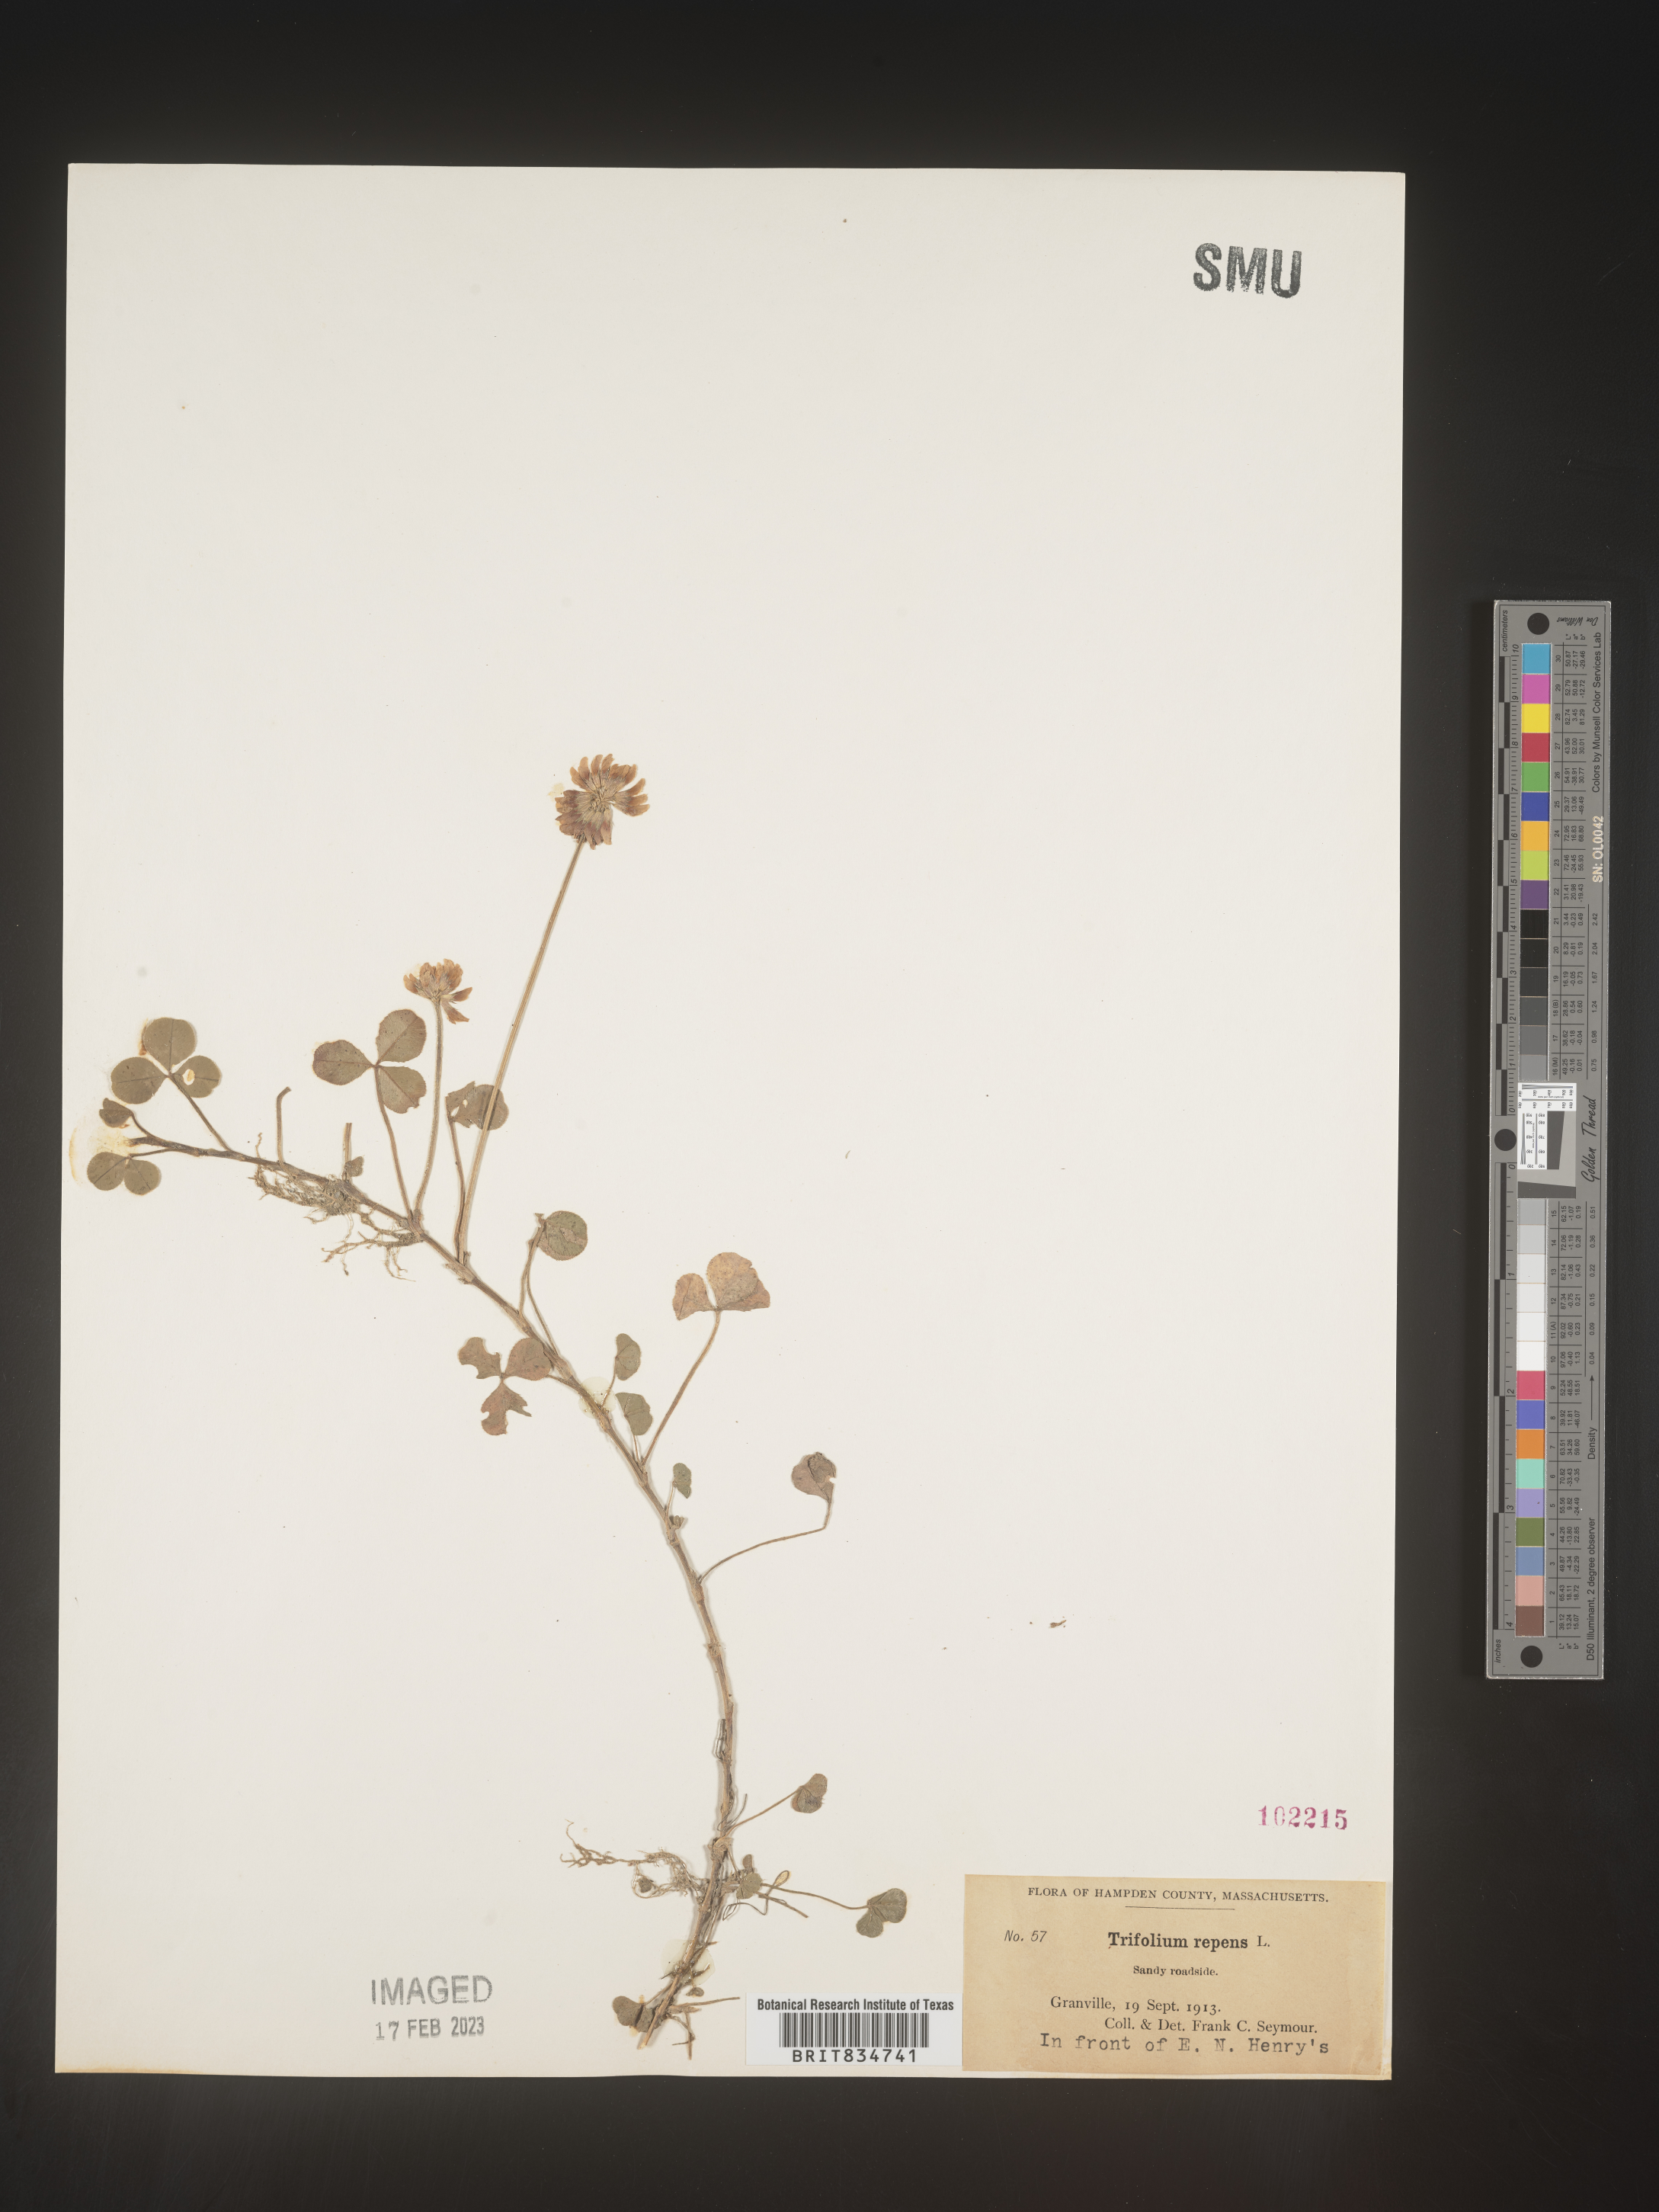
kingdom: Plantae
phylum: Tracheophyta
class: Magnoliopsida
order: Fabales
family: Fabaceae
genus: Trifolium
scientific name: Trifolium repens
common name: White clover
